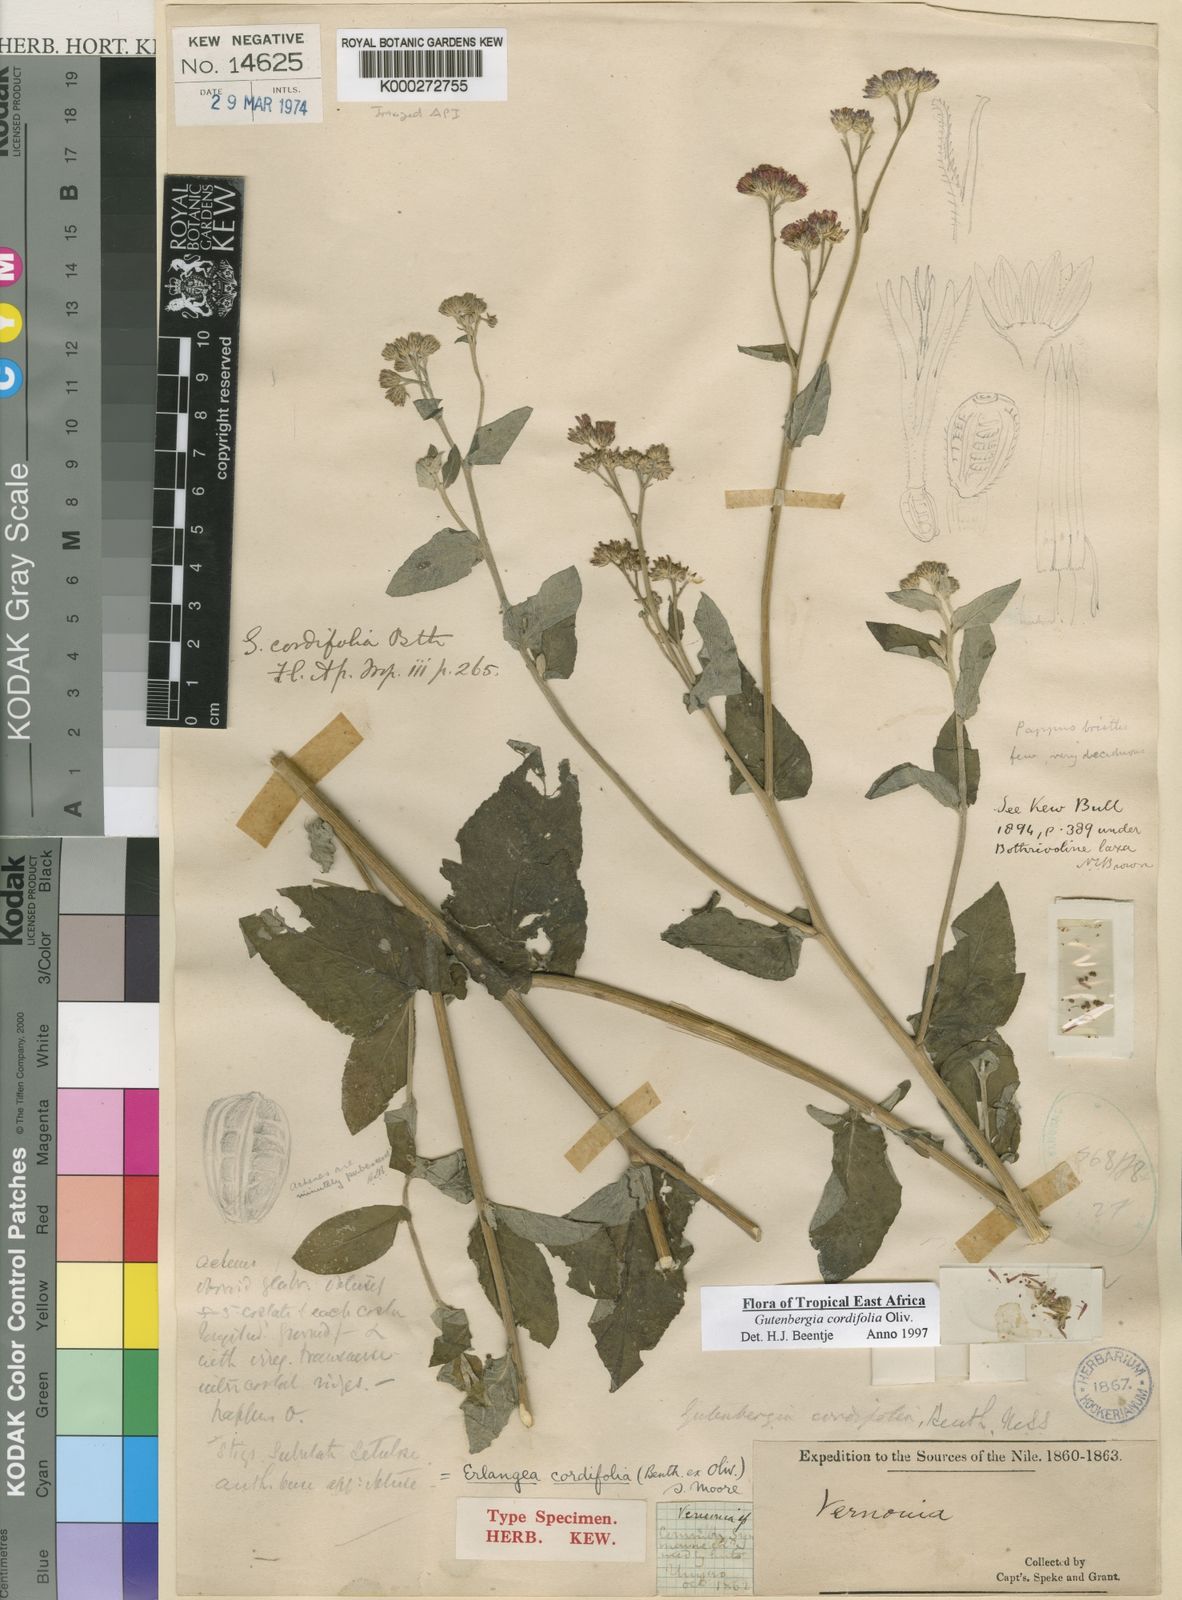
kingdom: Plantae
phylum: Tracheophyta
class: Magnoliopsida
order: Asterales
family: Asteraceae
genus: Gutenbergia
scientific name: Gutenbergia cordifolia
